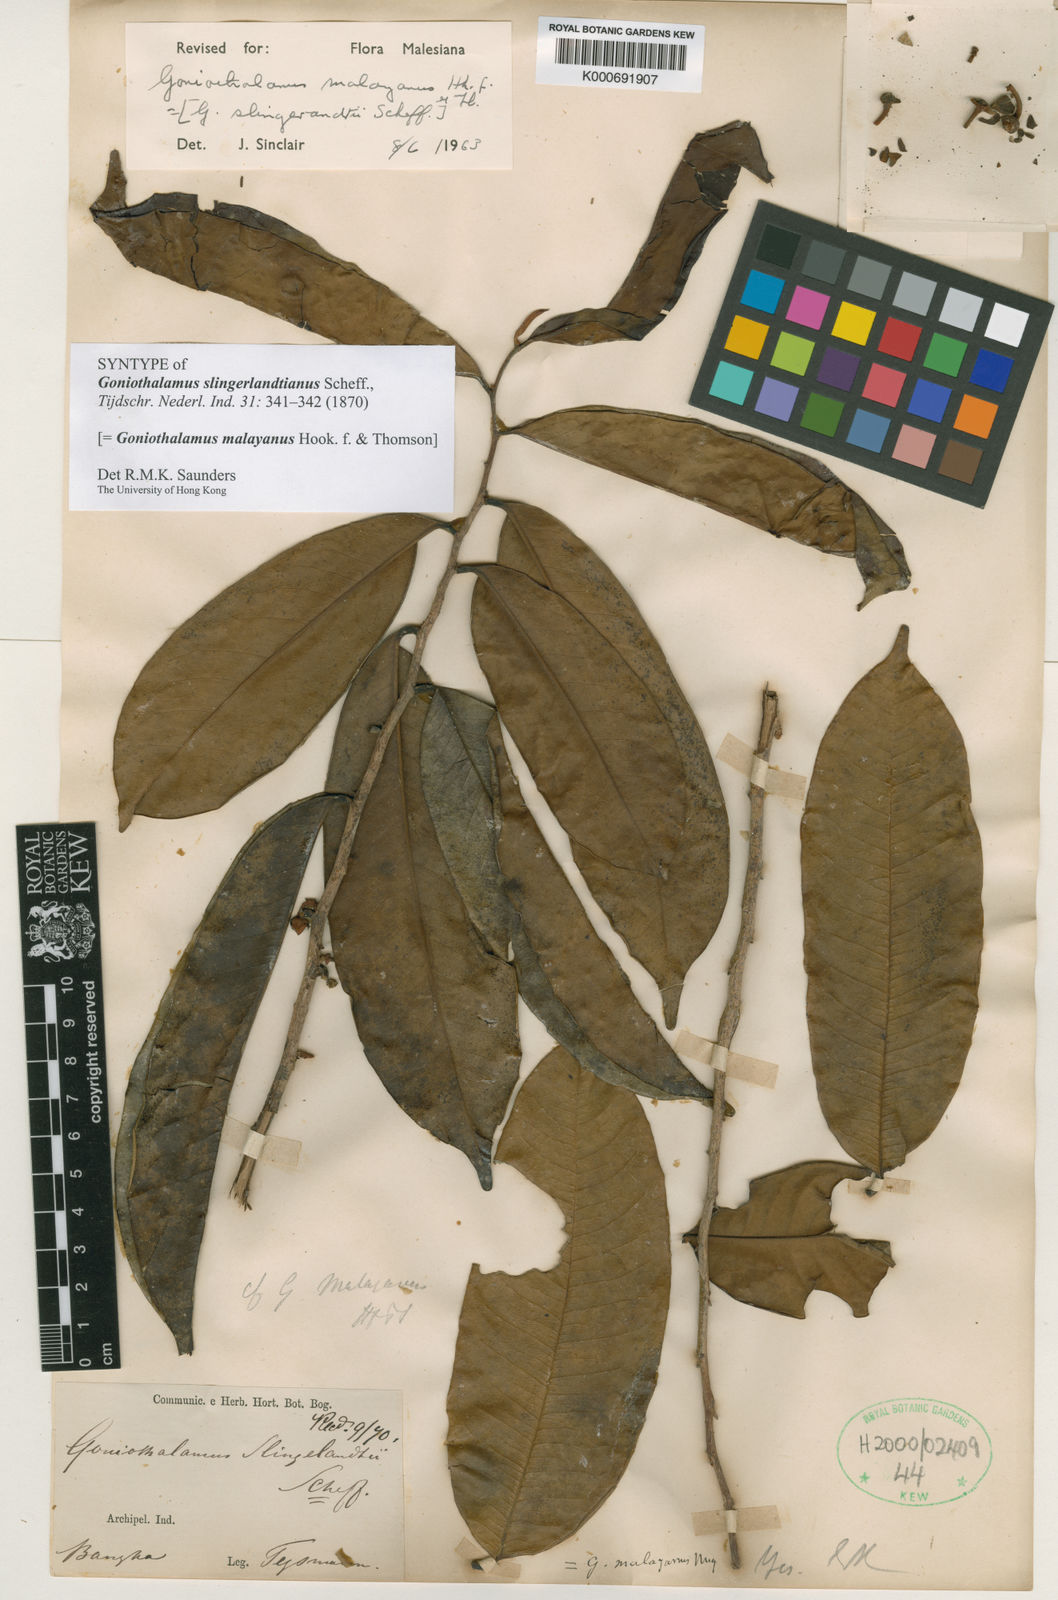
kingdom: Plantae
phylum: Tracheophyta
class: Magnoliopsida
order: Magnoliales
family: Annonaceae
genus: Goniothalamus
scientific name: Goniothalamus malayanus
